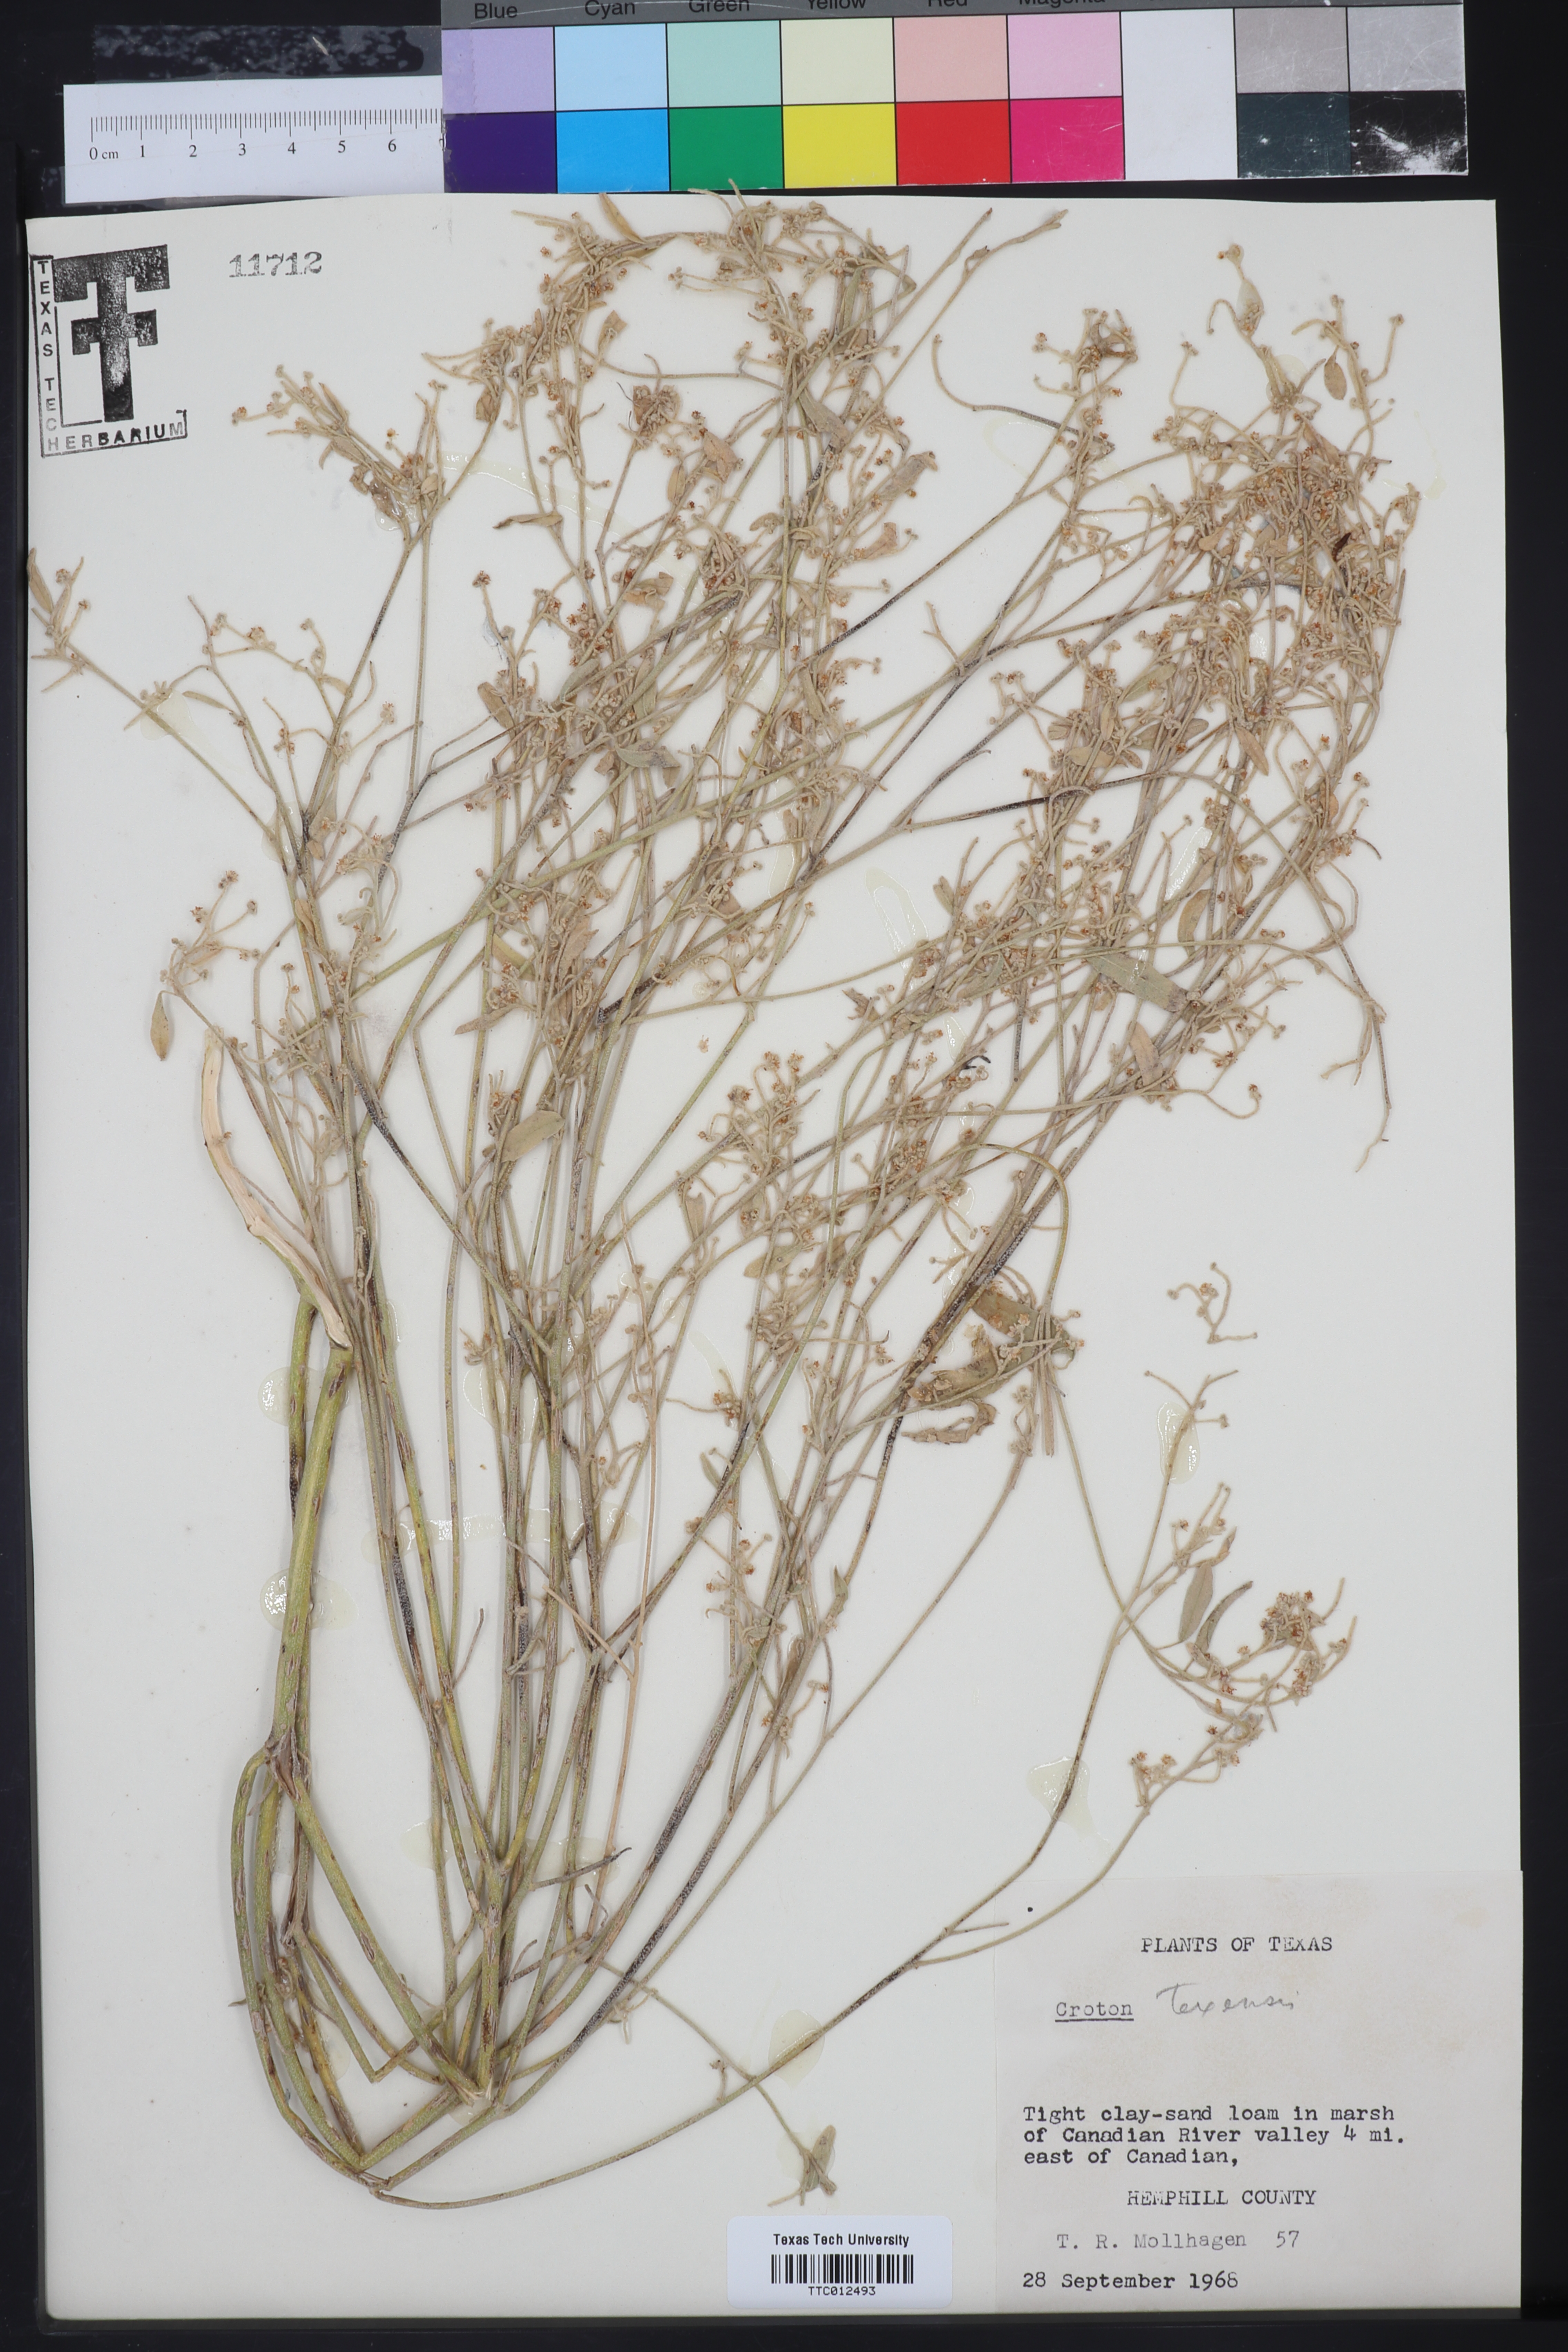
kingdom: Plantae
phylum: Tracheophyta
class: Magnoliopsida
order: Malpighiales
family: Euphorbiaceae
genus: Croton
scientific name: Croton texensis
